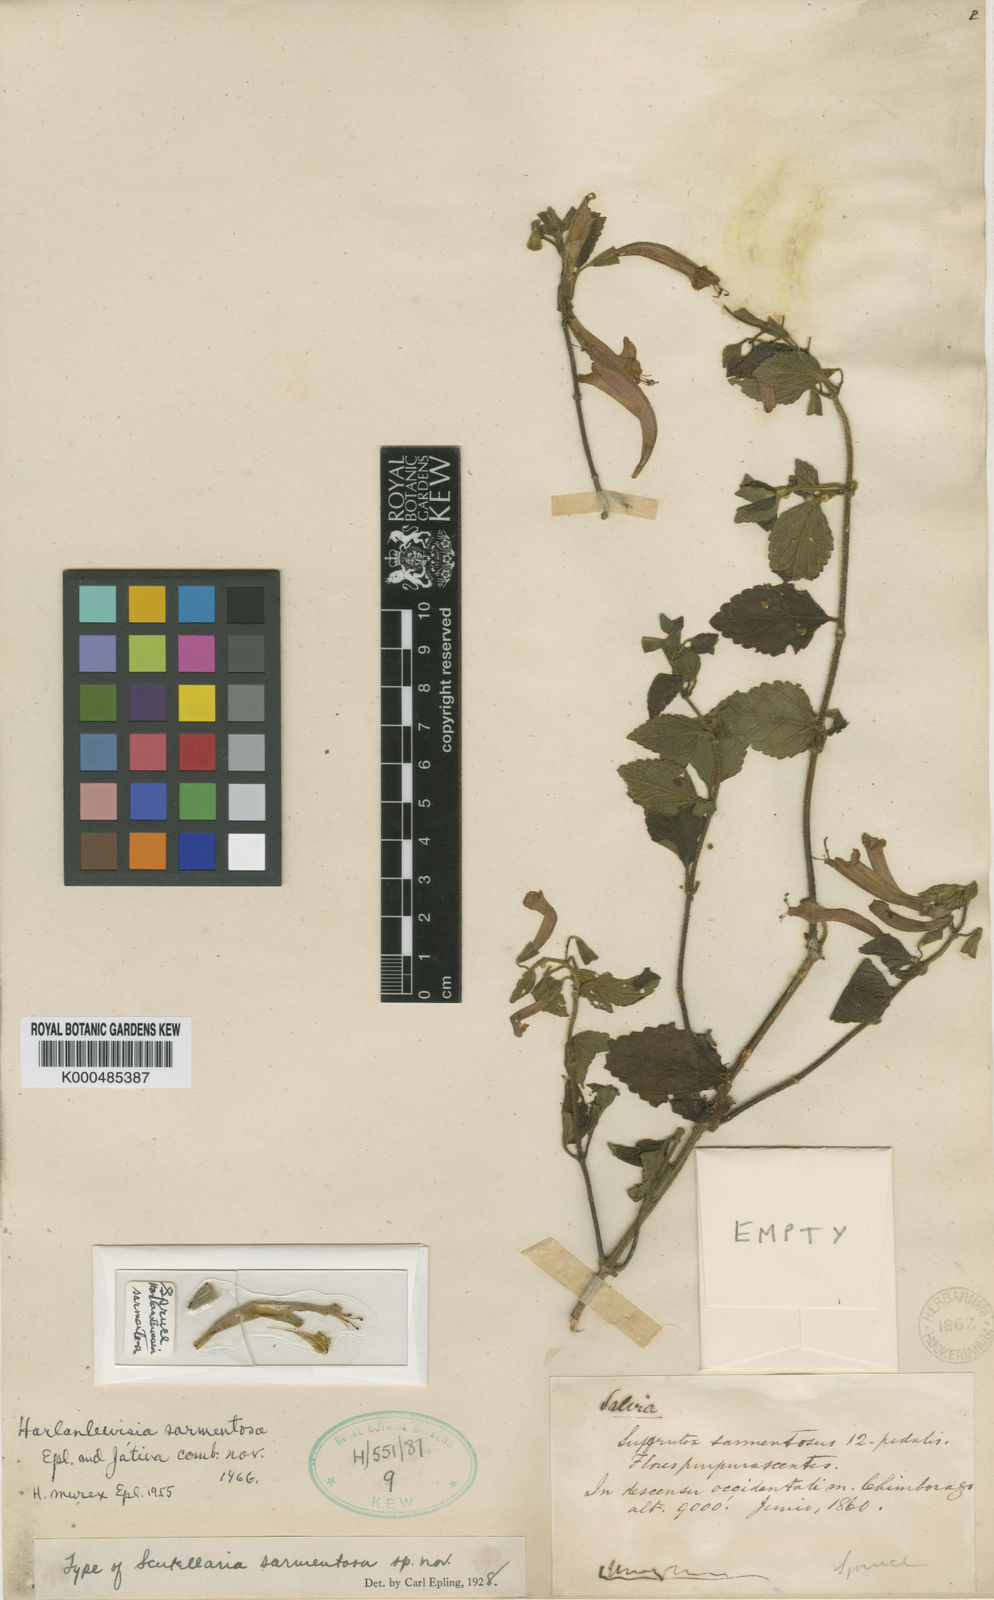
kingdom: Plantae
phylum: Tracheophyta
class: Magnoliopsida
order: Lamiales
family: Lamiaceae
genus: Scutellaria
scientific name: Scutellaria sarmentosa
